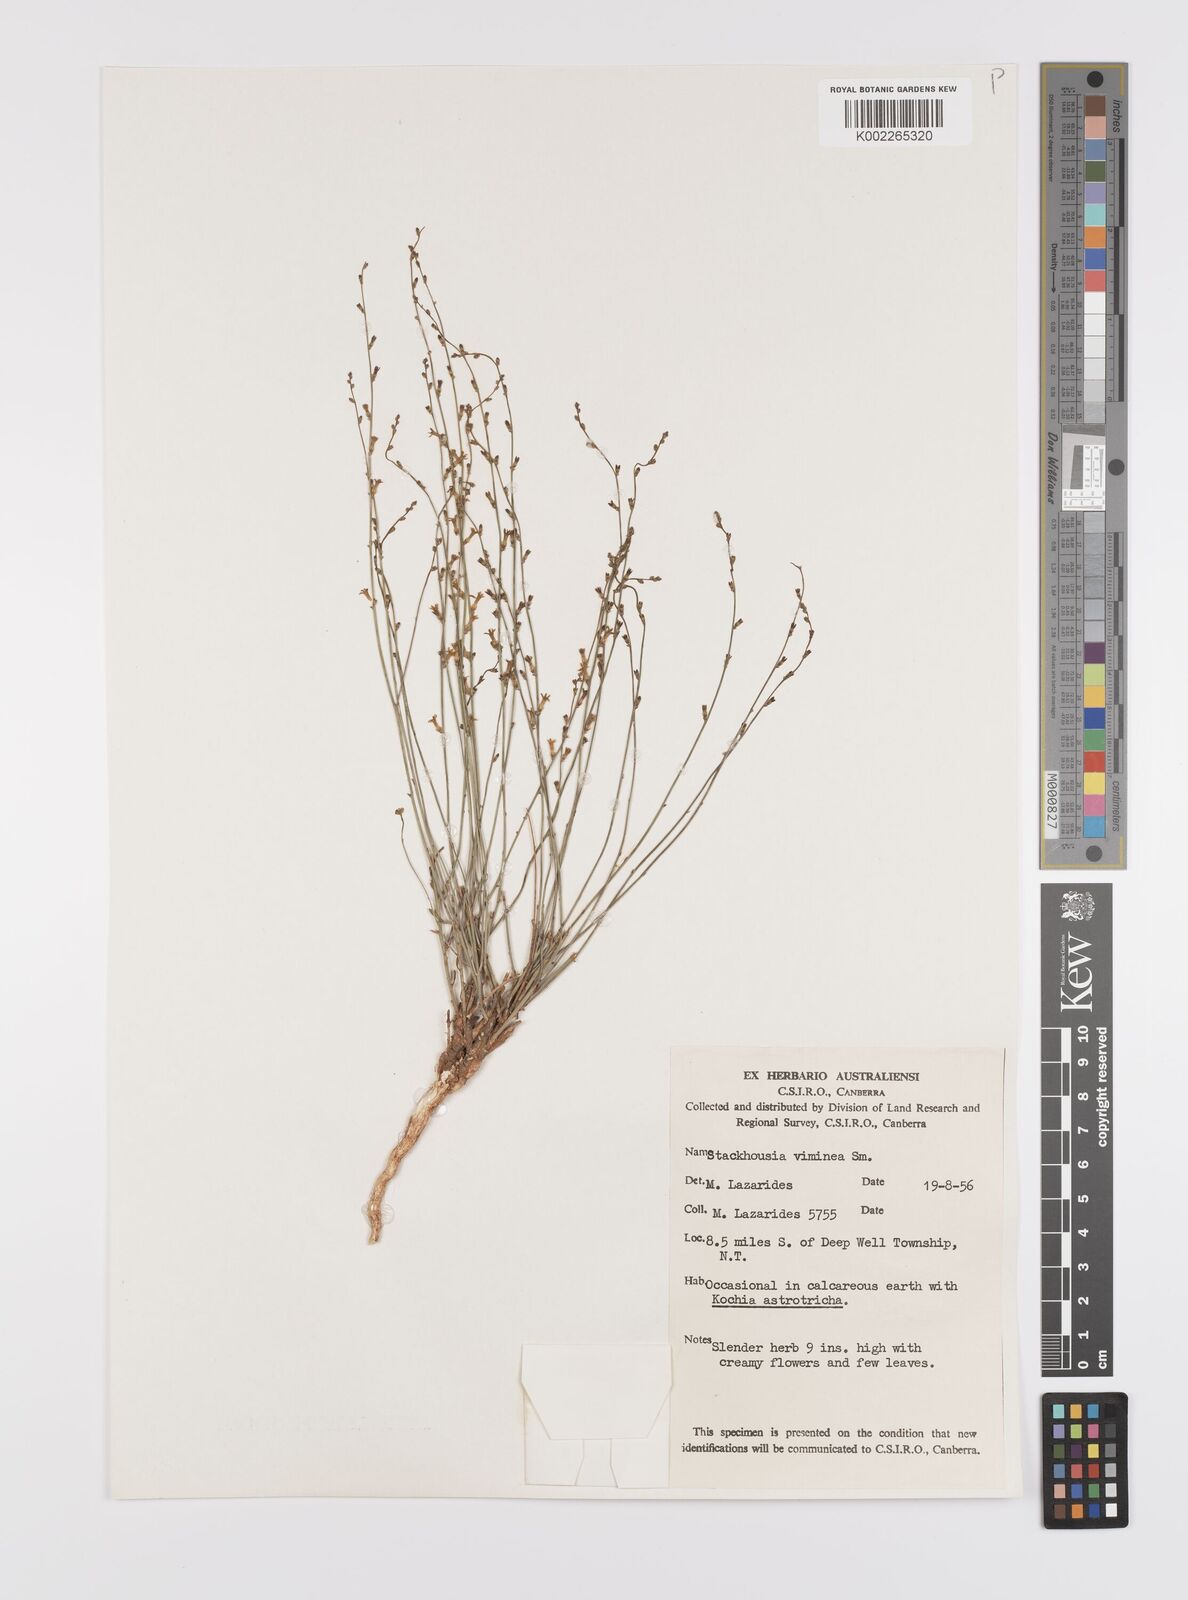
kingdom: Plantae
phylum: Tracheophyta
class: Magnoliopsida
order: Celastrales
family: Celastraceae
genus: Stackhousia
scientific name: Stackhousia viminea
